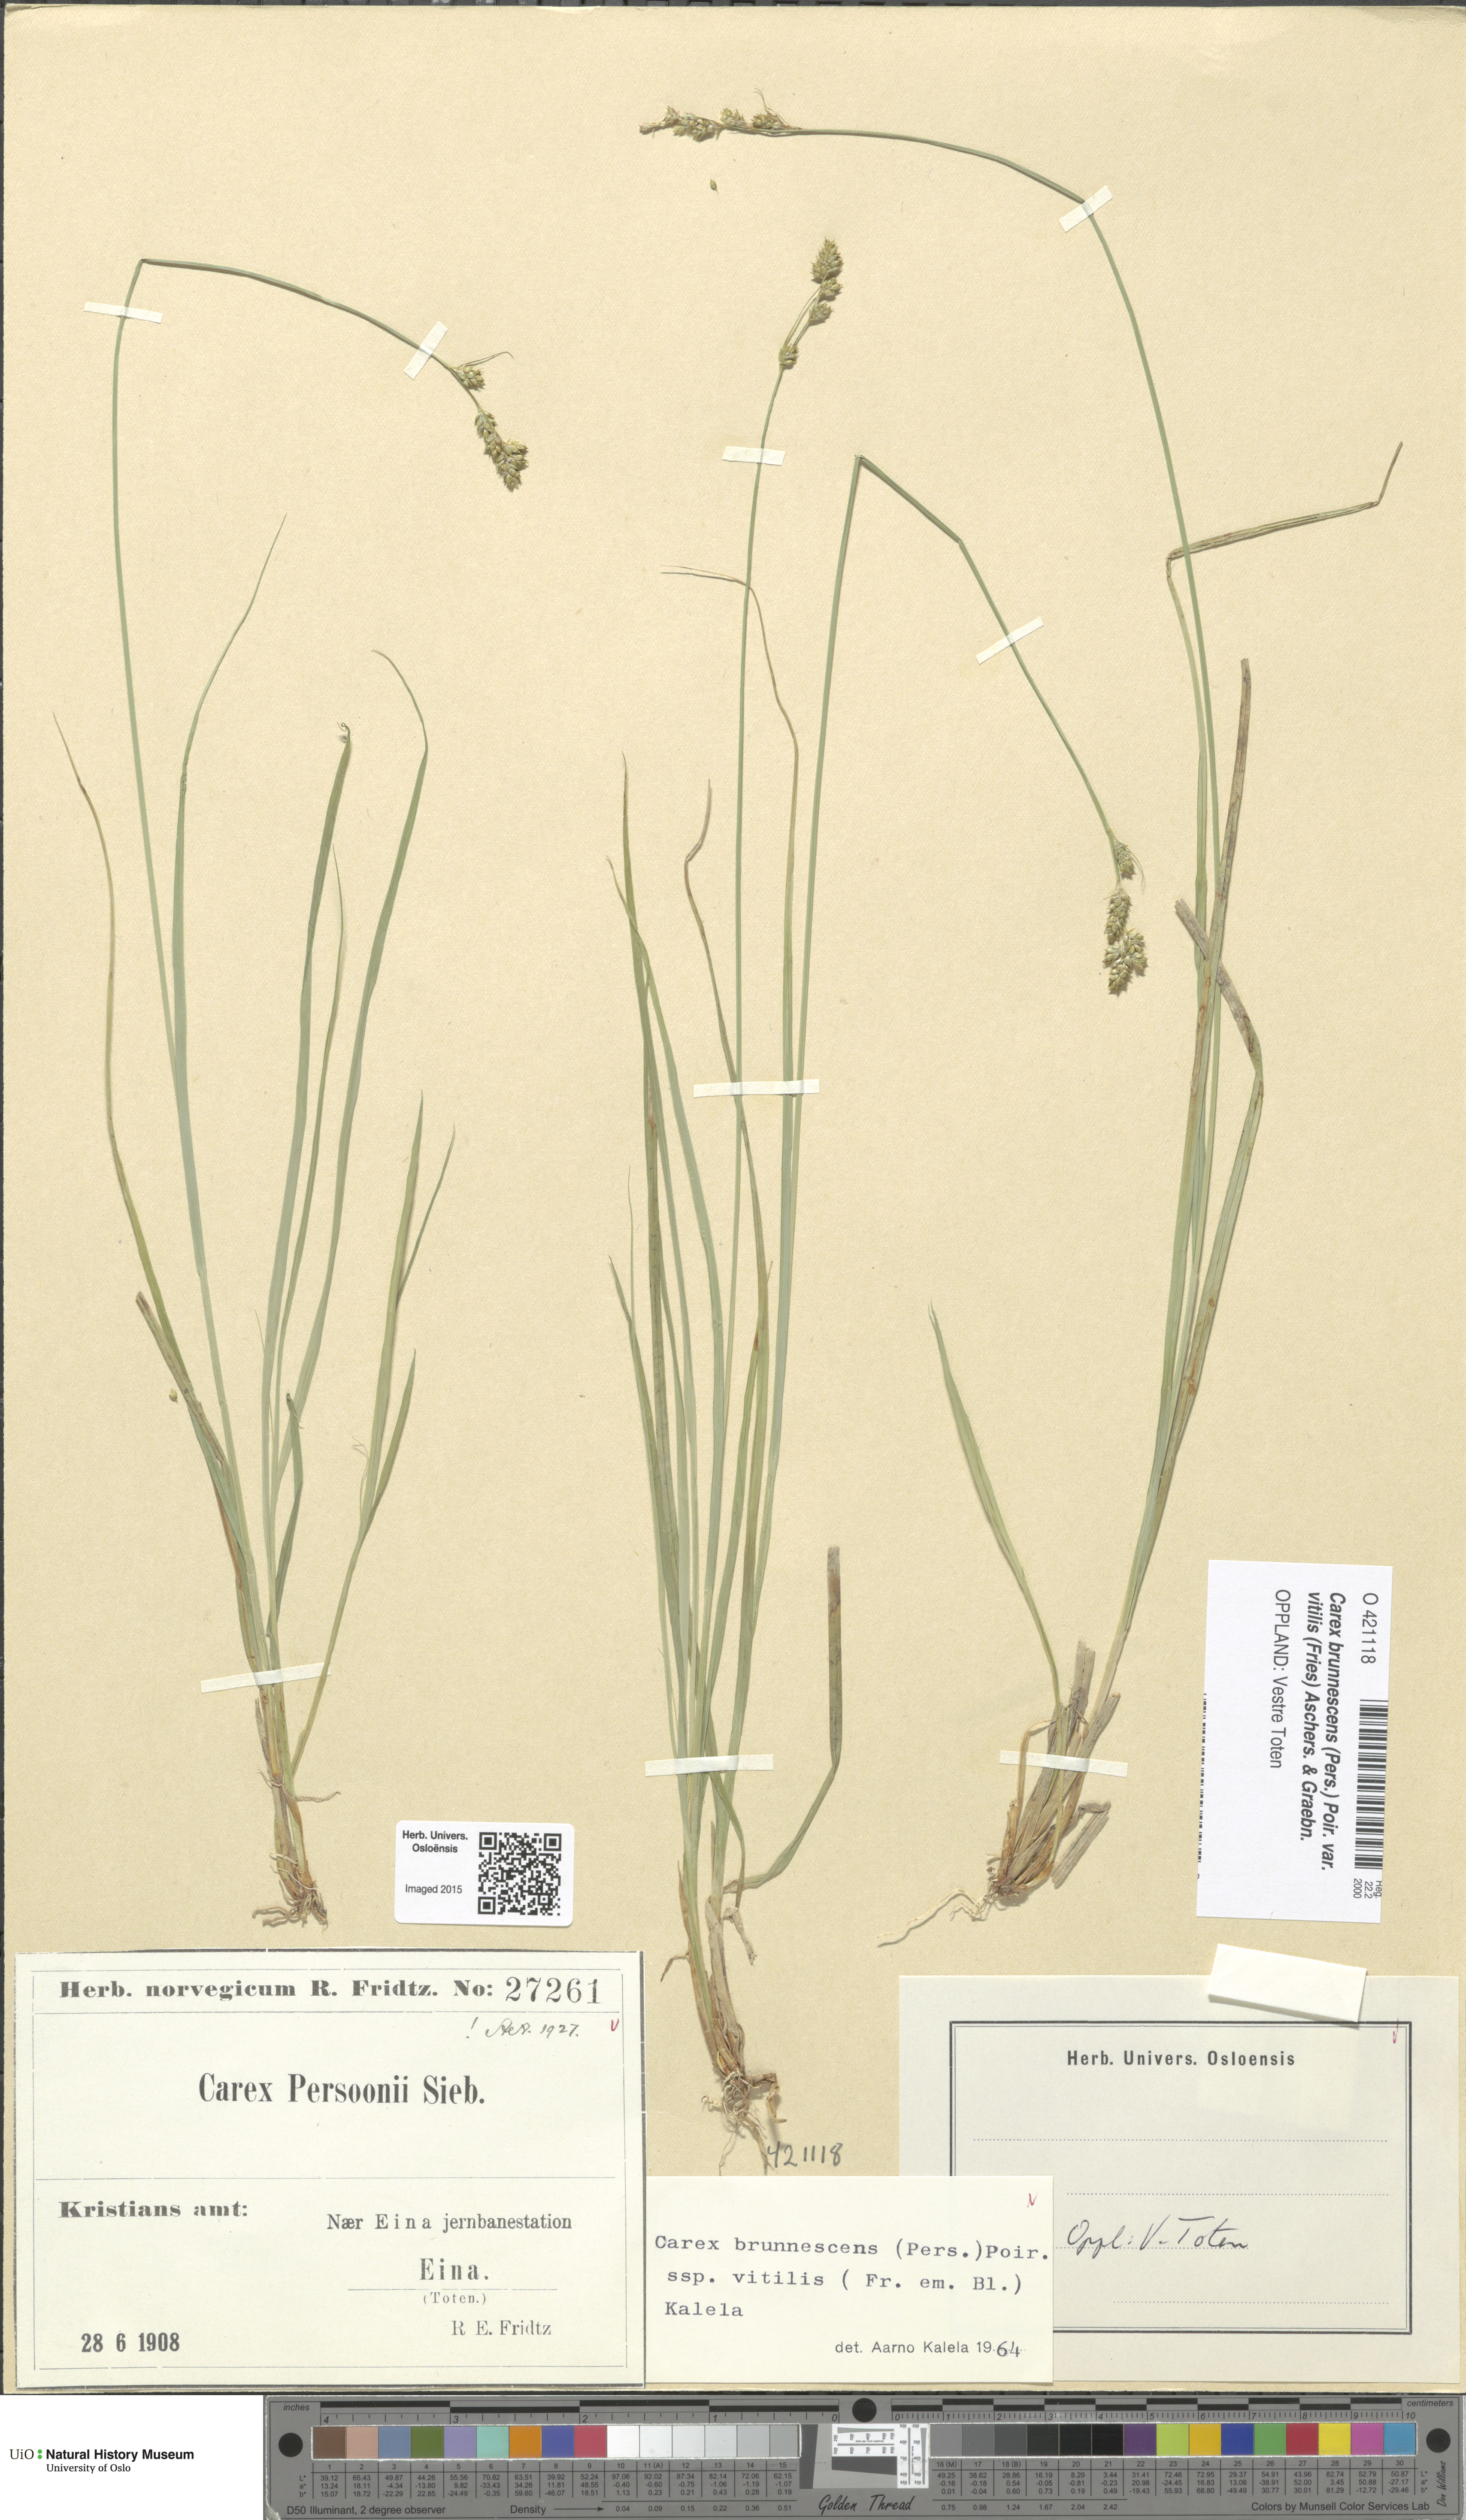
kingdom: Plantae
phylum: Tracheophyta
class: Liliopsida
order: Poales
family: Cyperaceae
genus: Carex
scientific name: Carex brunnescens
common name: Brown sedge
